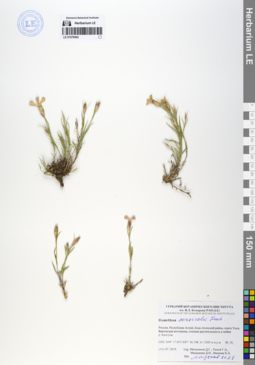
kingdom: Plantae
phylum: Tracheophyta
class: Magnoliopsida
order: Caryophyllales
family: Caryophyllaceae
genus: Dianthus
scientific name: Dianthus chinensis
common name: Rainbow pink
